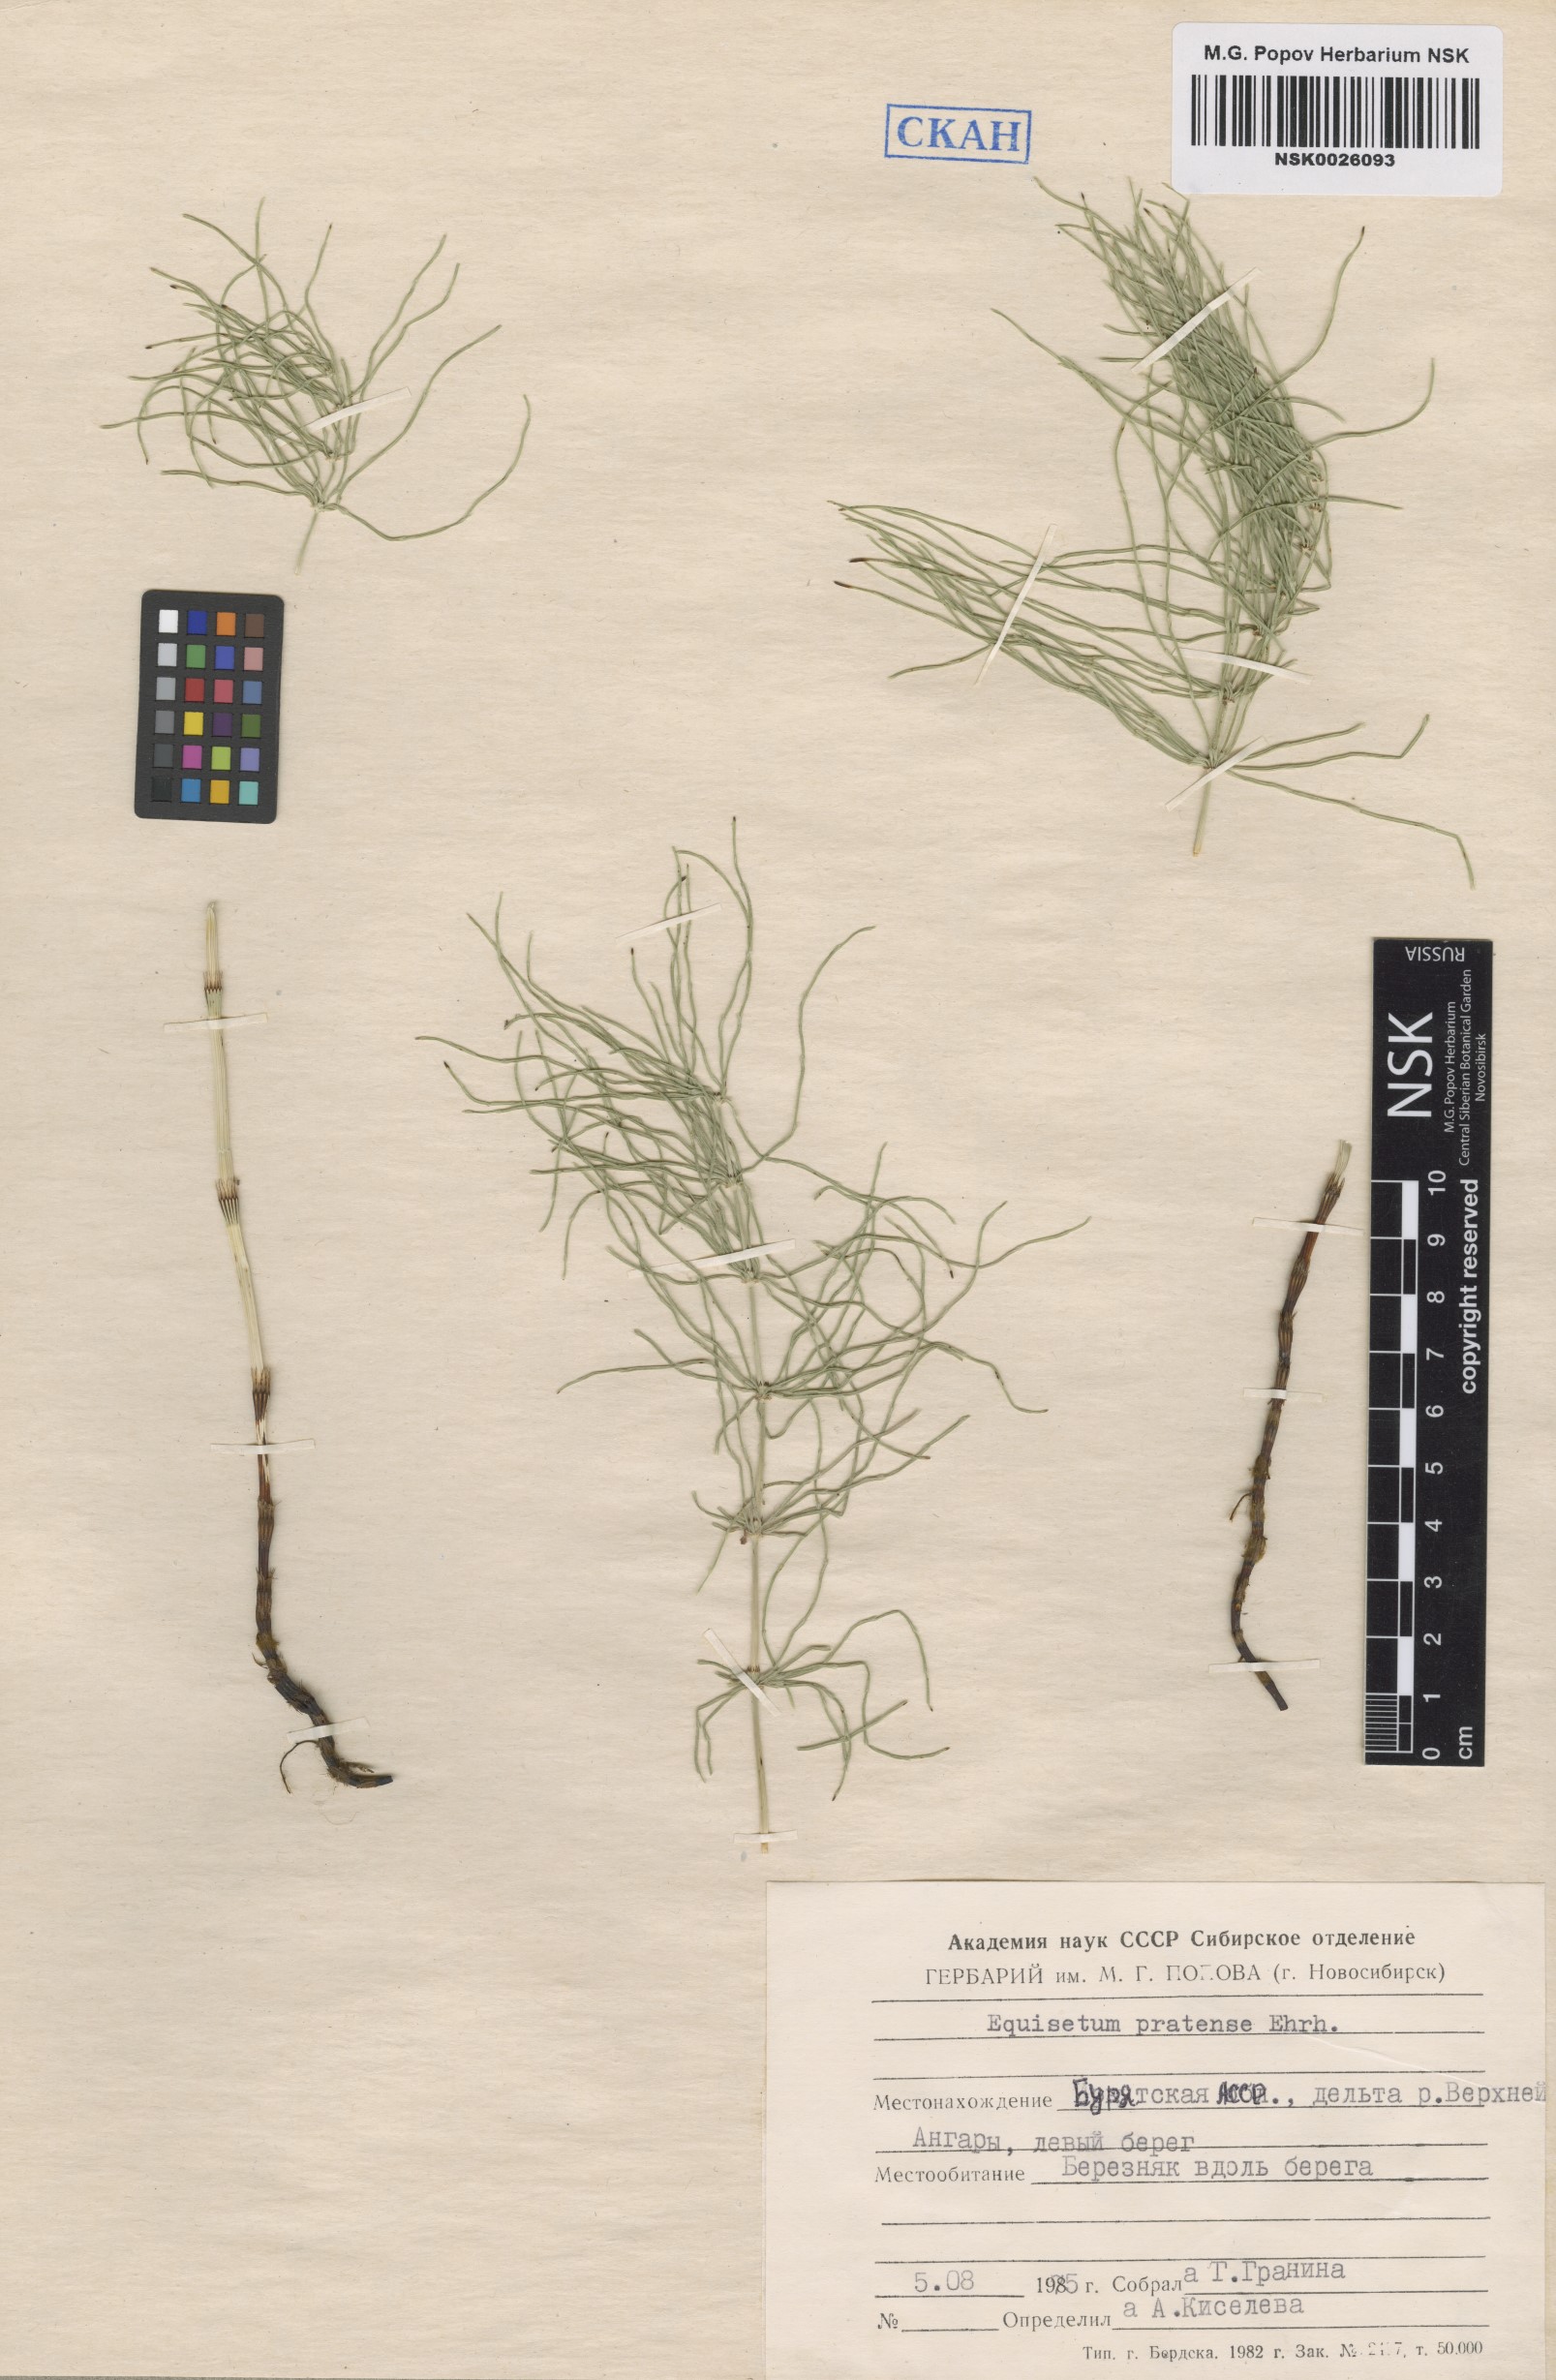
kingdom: Plantae
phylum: Tracheophyta
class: Polypodiopsida
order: Equisetales
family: Equisetaceae
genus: Equisetum
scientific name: Equisetum pratense
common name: Meadow horsetail
